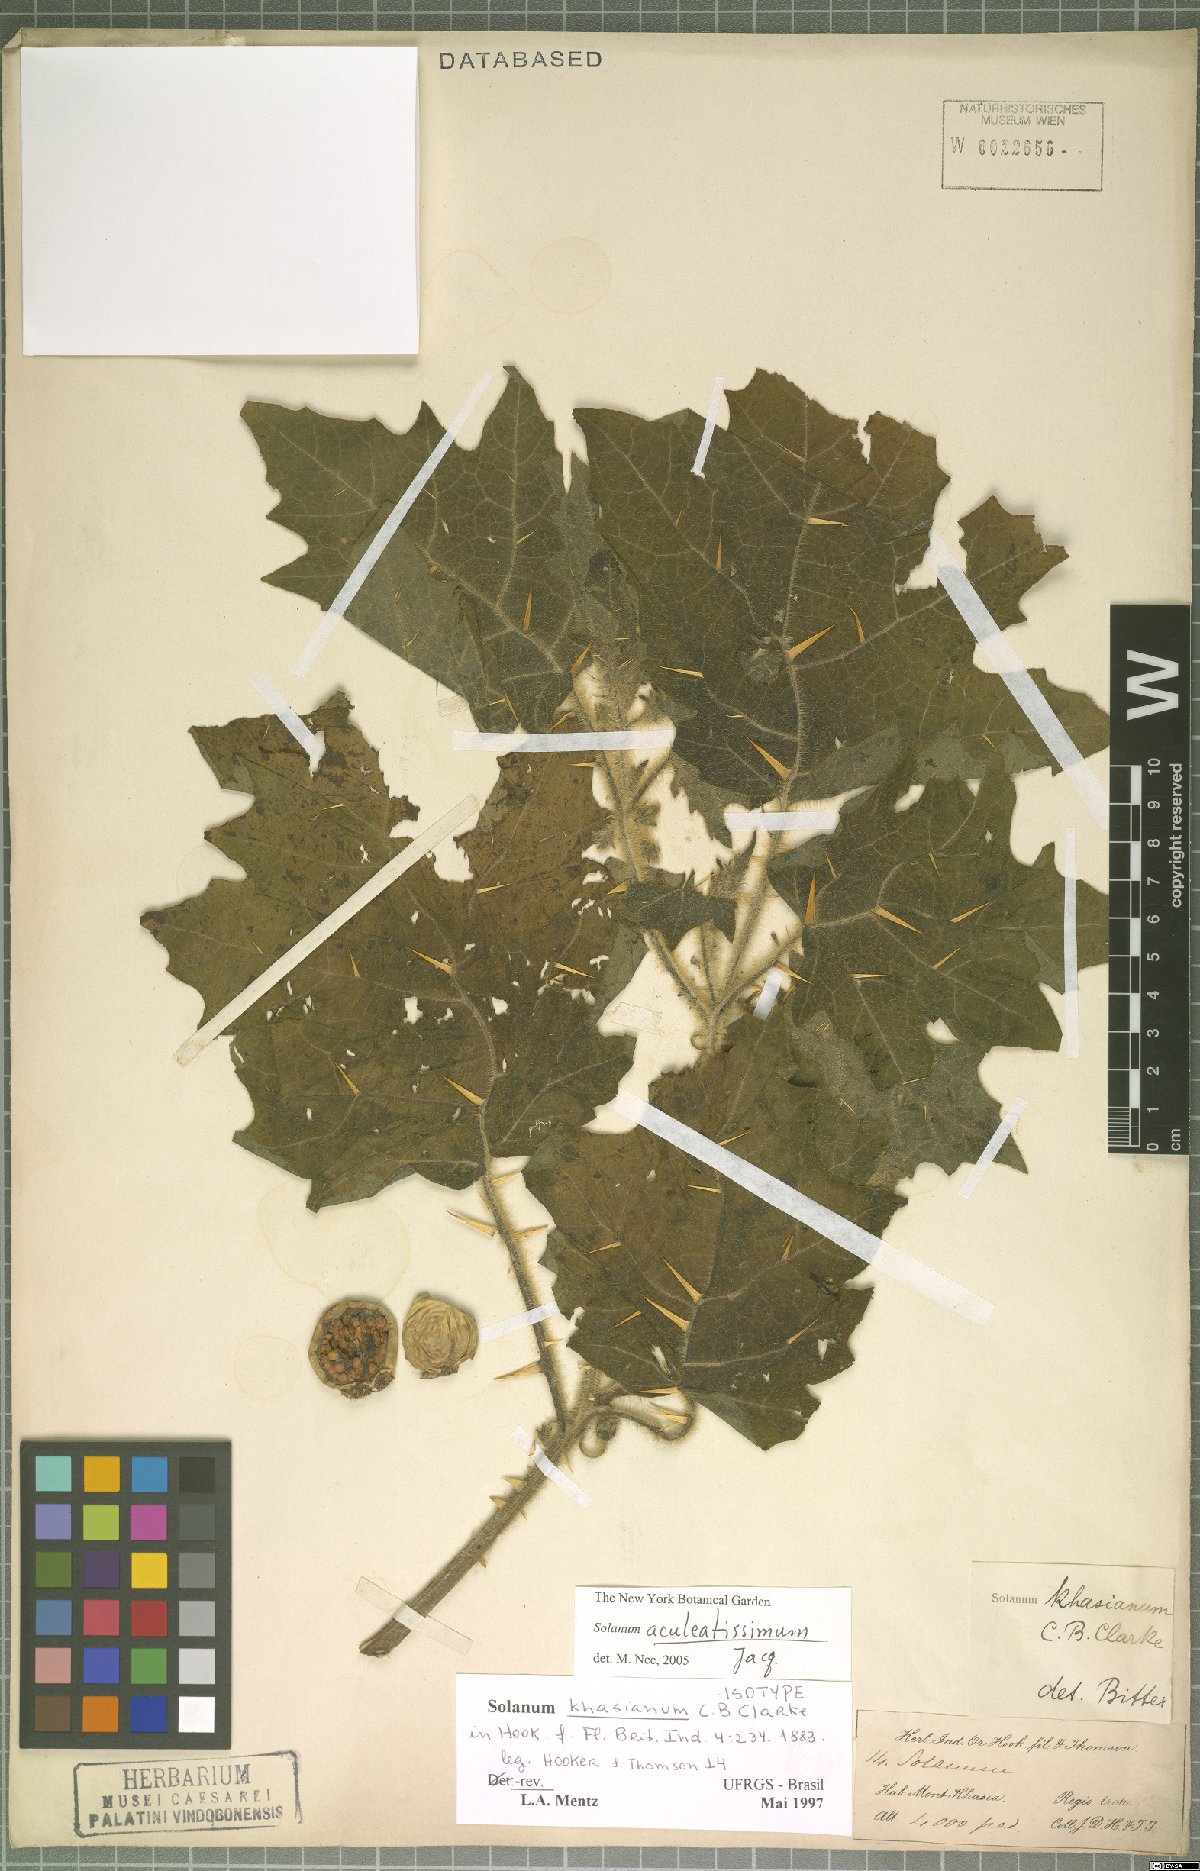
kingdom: Plantae
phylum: Tracheophyta
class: Magnoliopsida
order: Solanales
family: Solanaceae
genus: Solanum
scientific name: Solanum aculeatissimum
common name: Dutch eggplant
